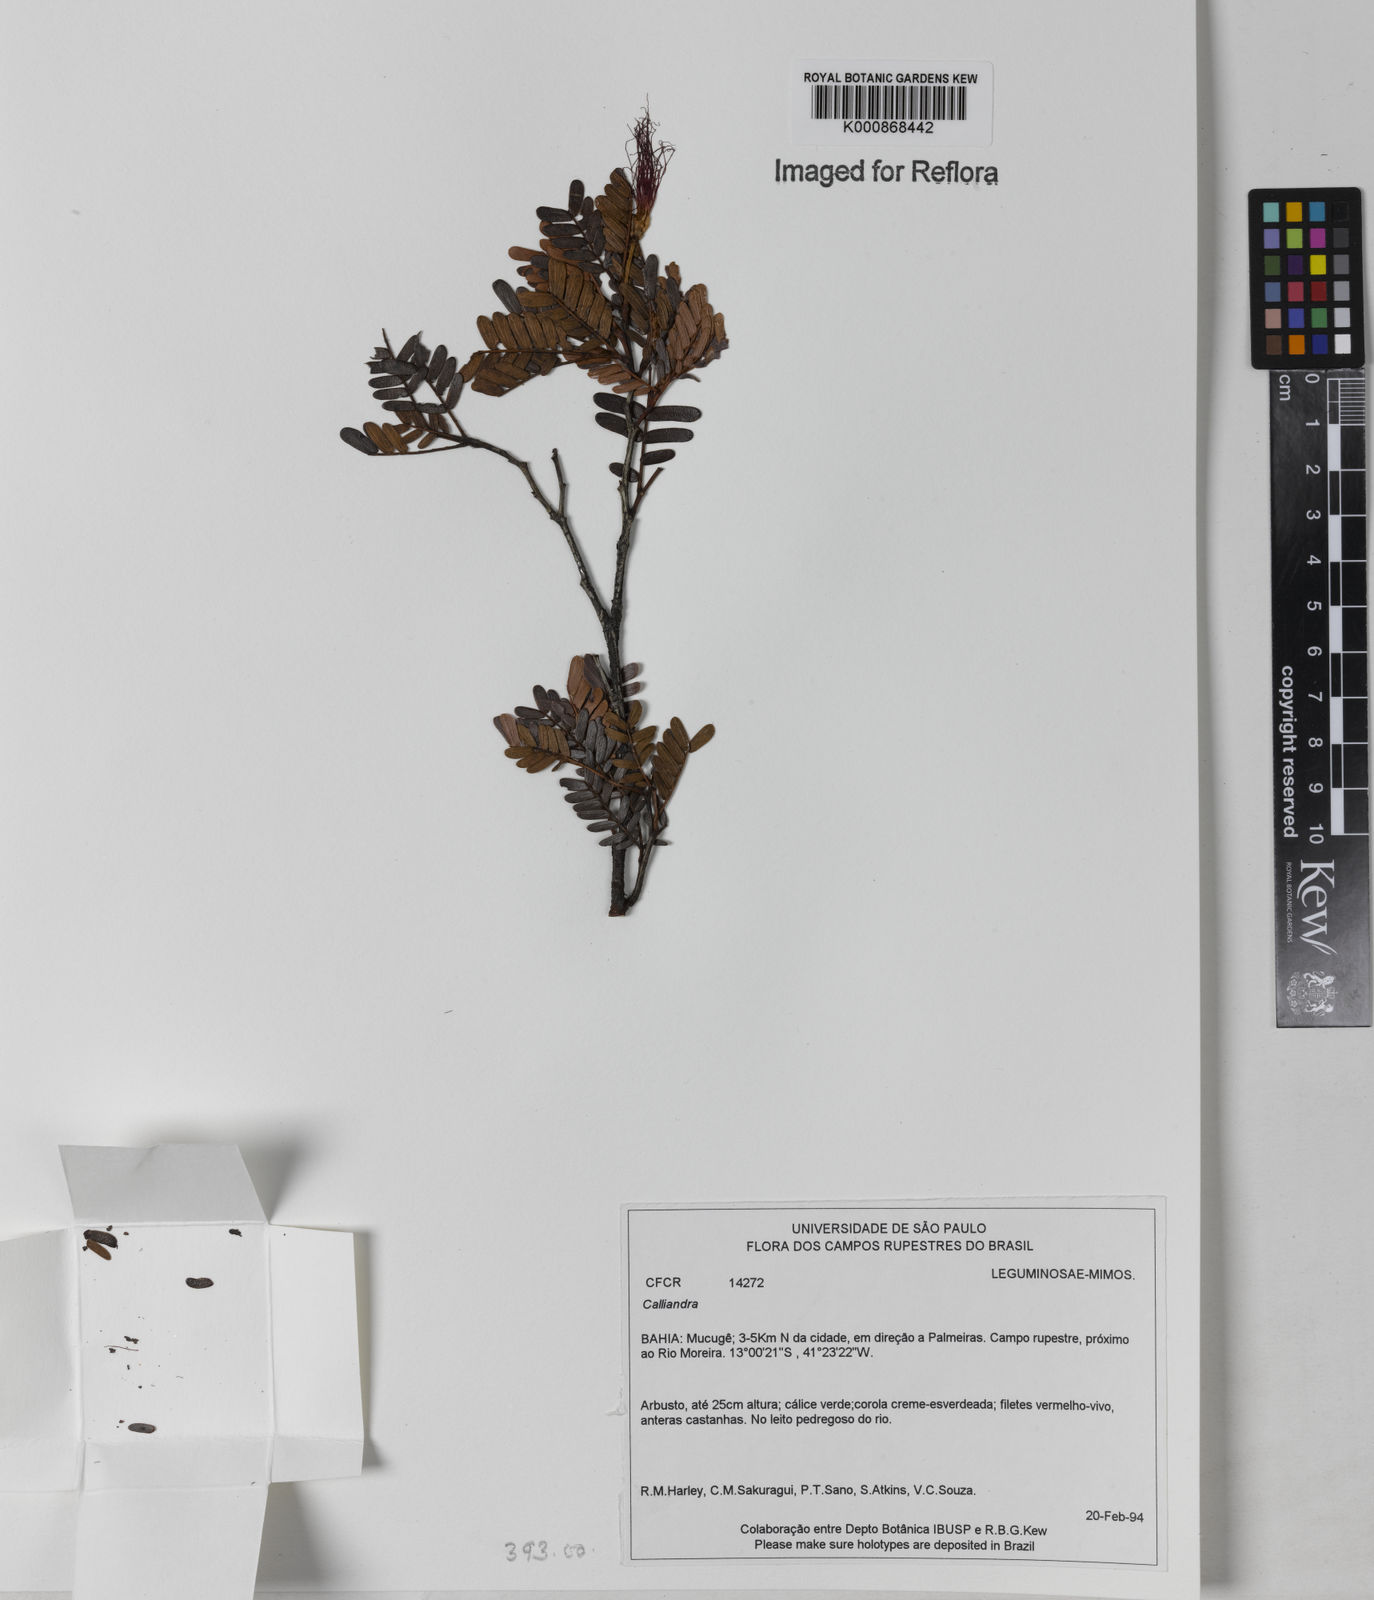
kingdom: Plantae
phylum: Tracheophyta
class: Magnoliopsida
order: Fabales
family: Fabaceae
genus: Calliandra
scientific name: Calliandra
